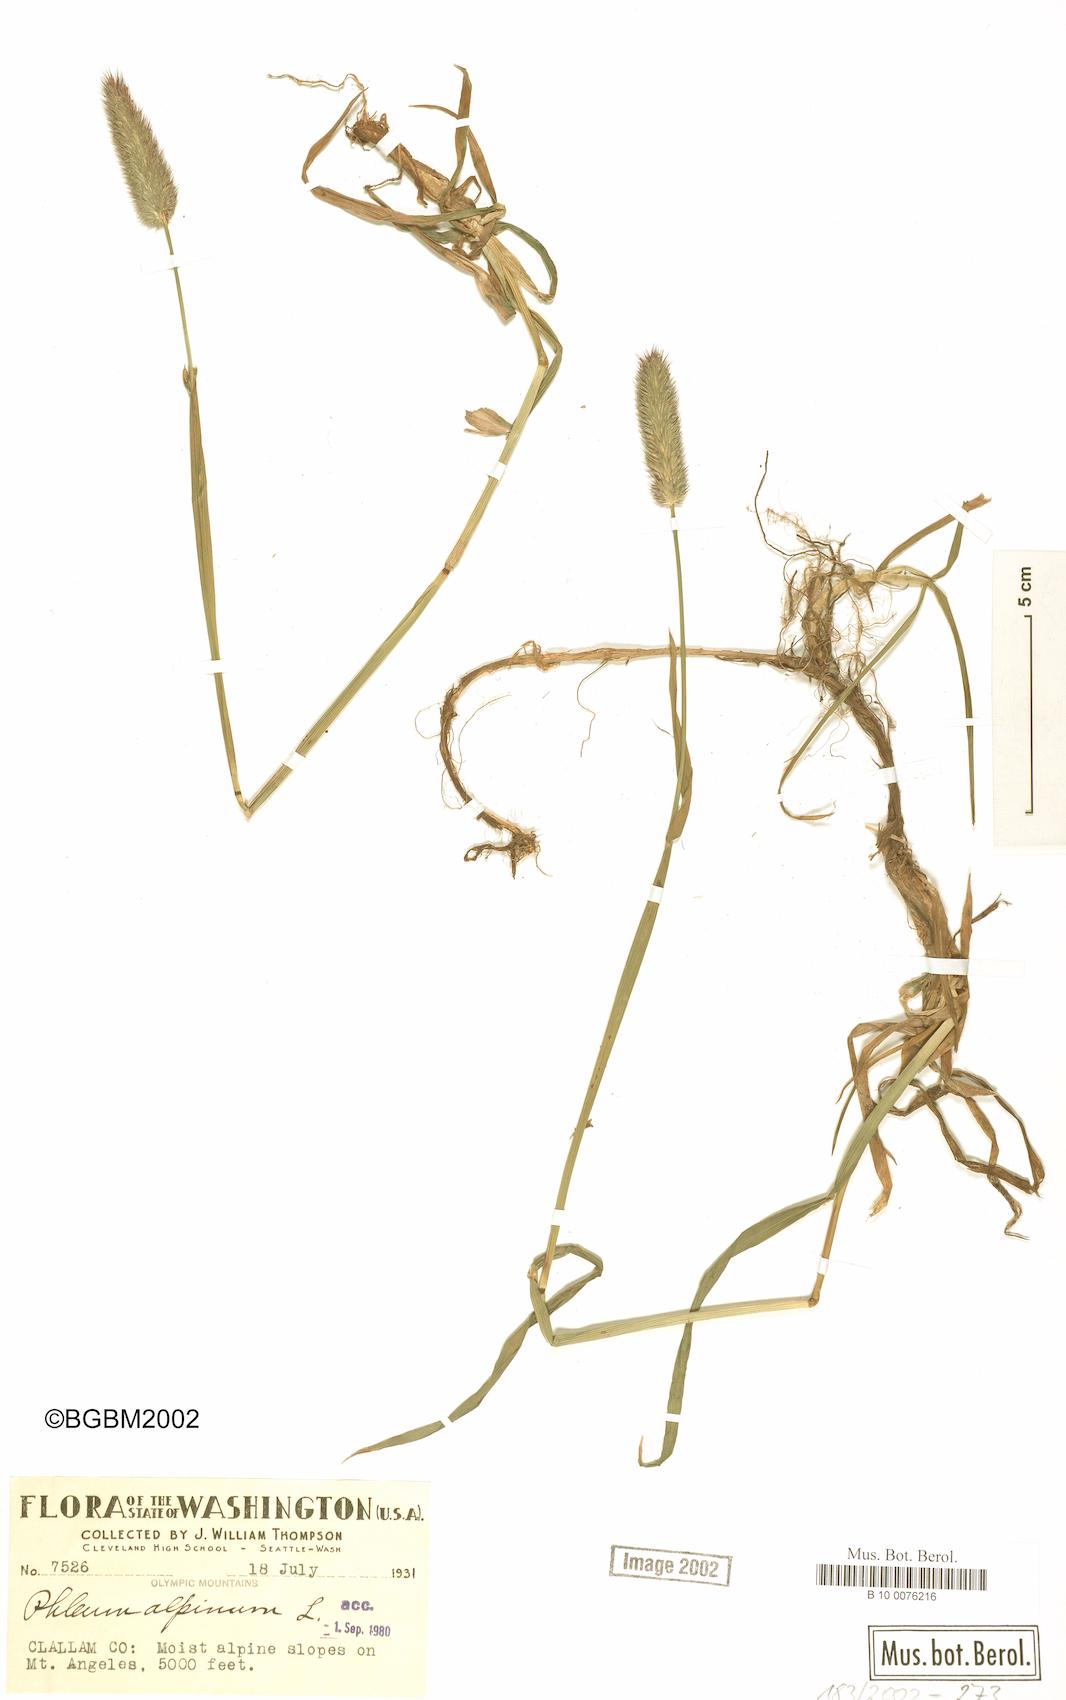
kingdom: Plantae
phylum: Tracheophyta
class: Liliopsida
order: Poales
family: Poaceae
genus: Phleum
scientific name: Phleum alpinum
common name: Alpine cat's-tail
